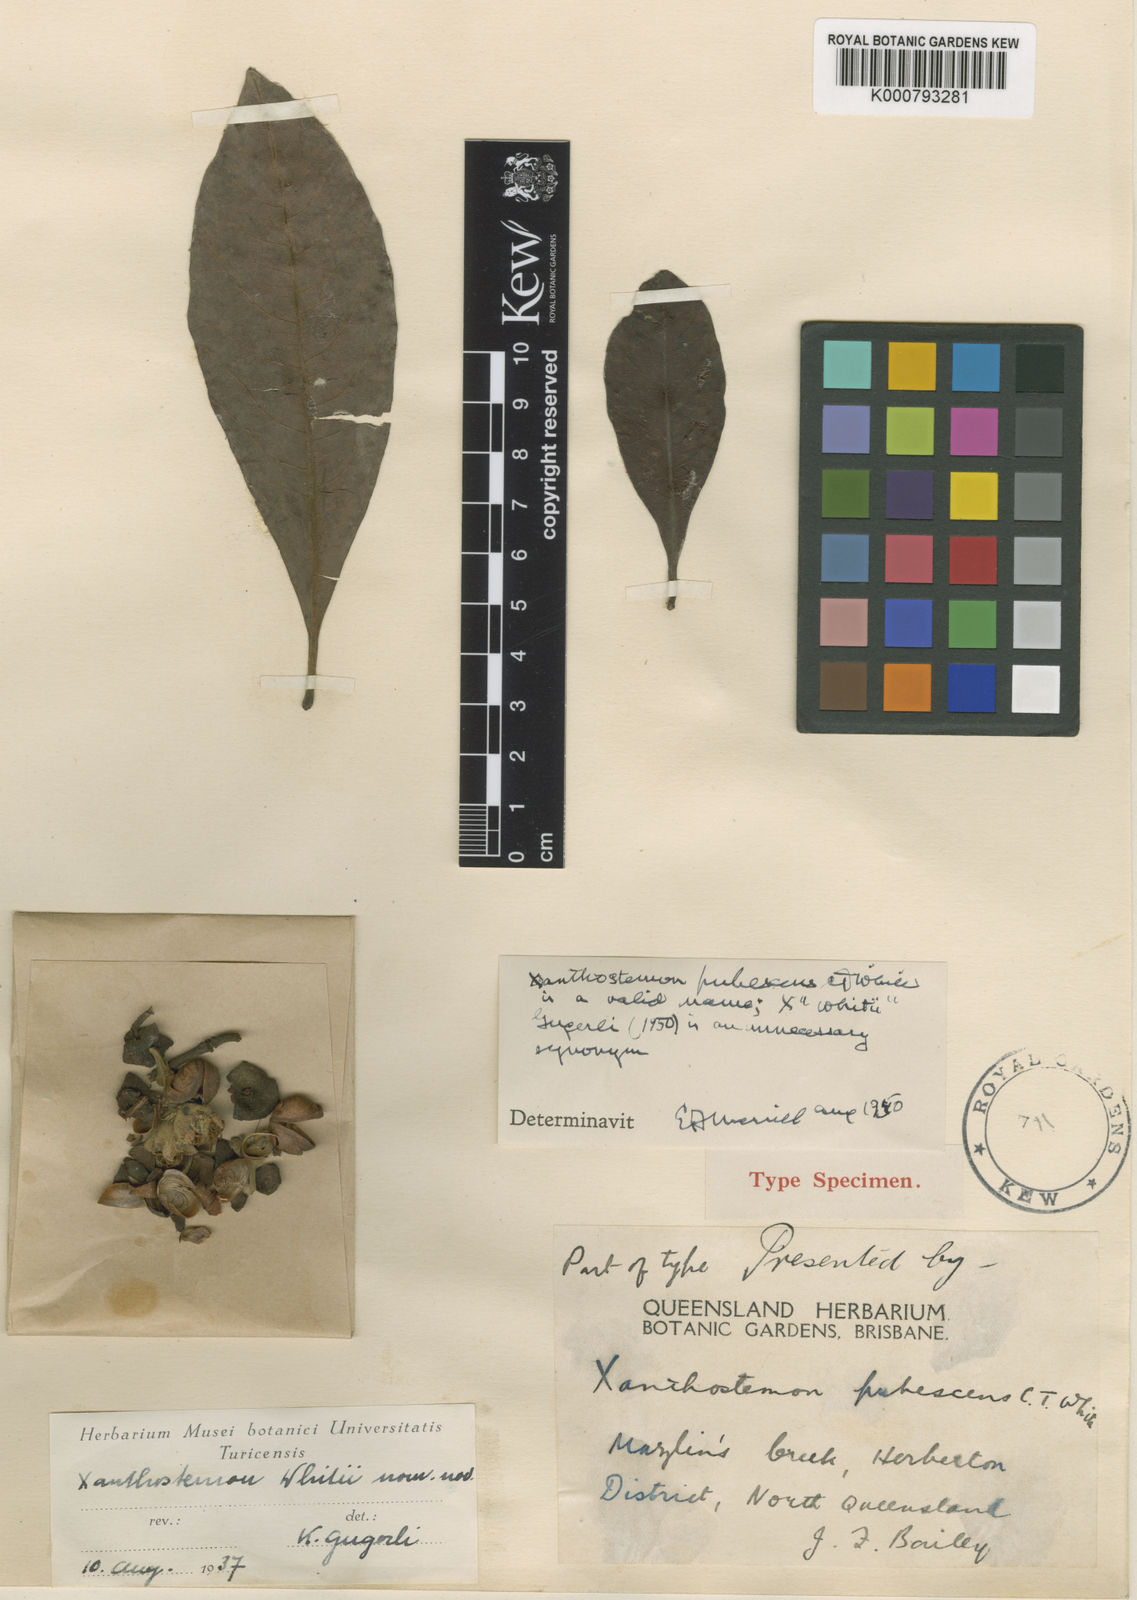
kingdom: Plantae
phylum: Tracheophyta
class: Magnoliopsida
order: Myrtales
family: Myrtaceae
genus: Xanthostemon
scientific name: Xanthostemon whitei
